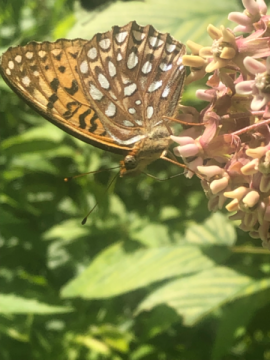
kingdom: Animalia
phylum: Arthropoda
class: Insecta
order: Lepidoptera
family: Nymphalidae
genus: Speyeria
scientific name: Speyeria atlantis
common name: Atlantis Fritillary
